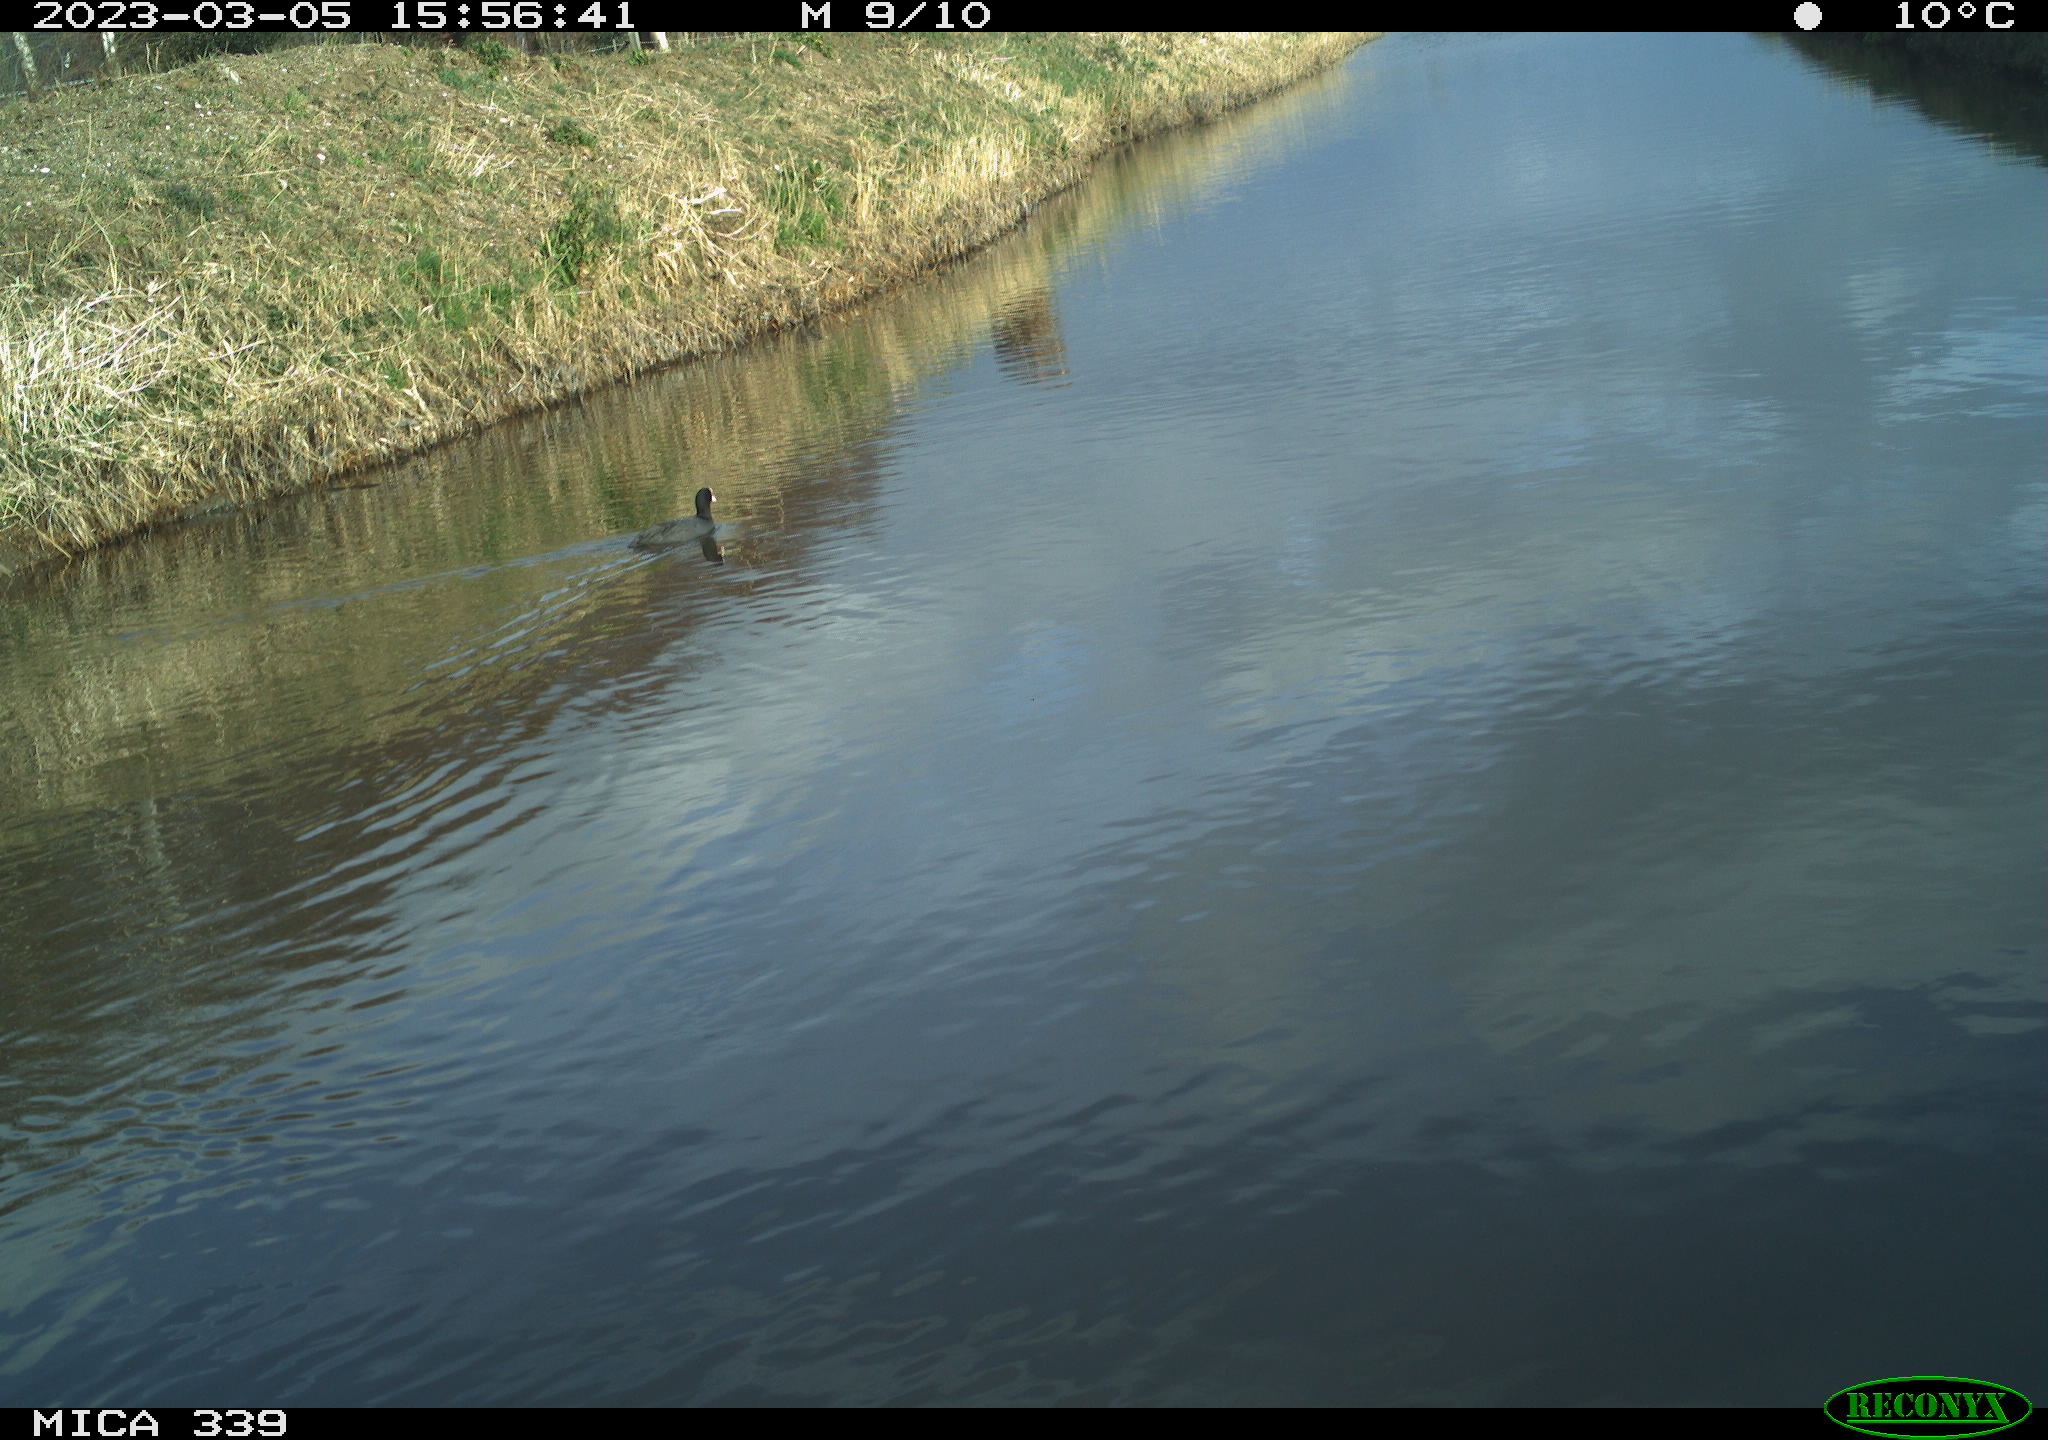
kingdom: Animalia
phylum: Chordata
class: Aves
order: Gruiformes
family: Rallidae
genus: Fulica
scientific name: Fulica atra
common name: Eurasian coot
